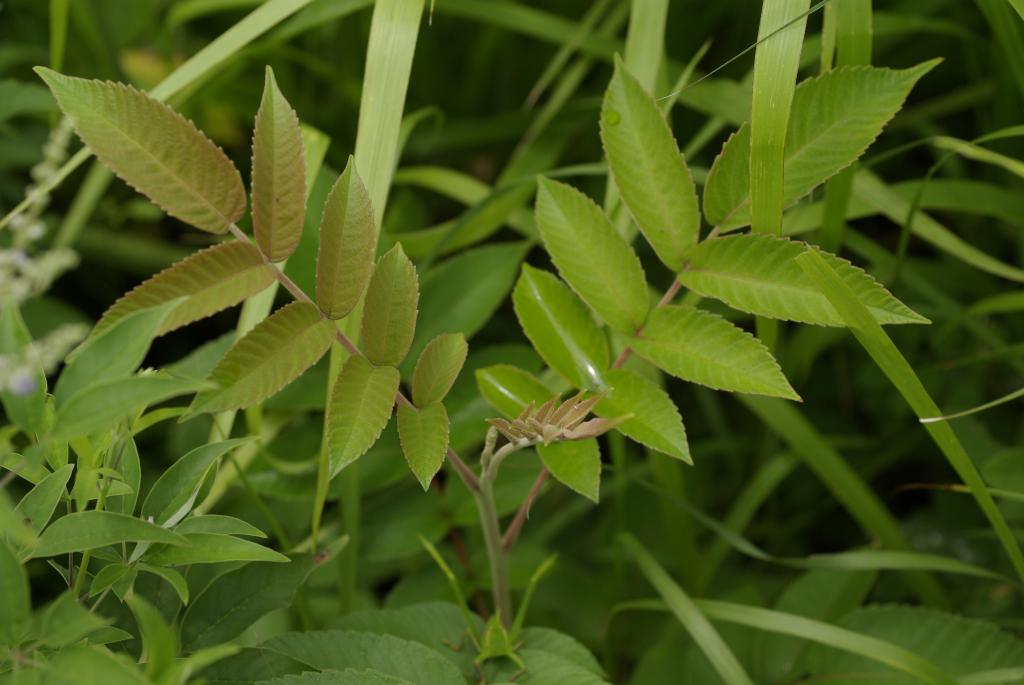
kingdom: Plantae
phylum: Tracheophyta
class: Magnoliopsida
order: Sapindales
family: Anacardiaceae
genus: Rhus
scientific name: Rhus chinensis
